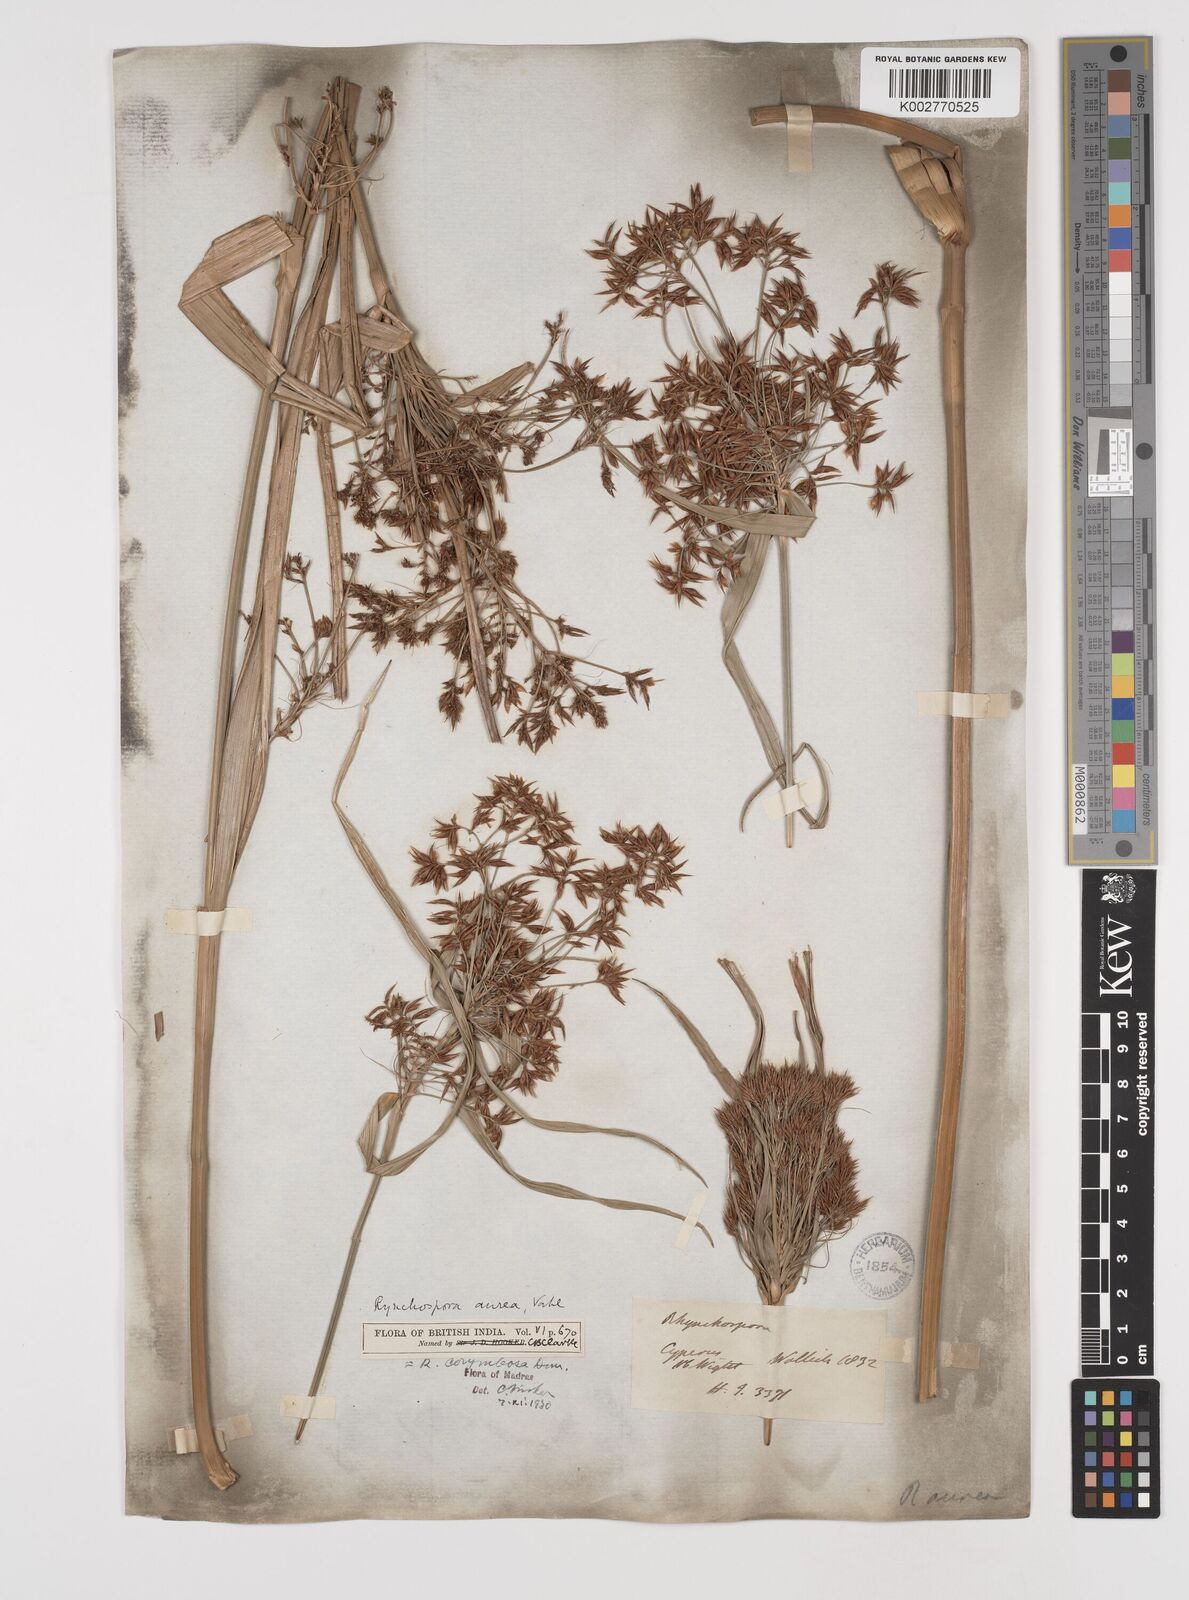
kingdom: Plantae
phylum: Tracheophyta
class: Liliopsida
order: Poales
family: Cyperaceae
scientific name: Cyperaceae
